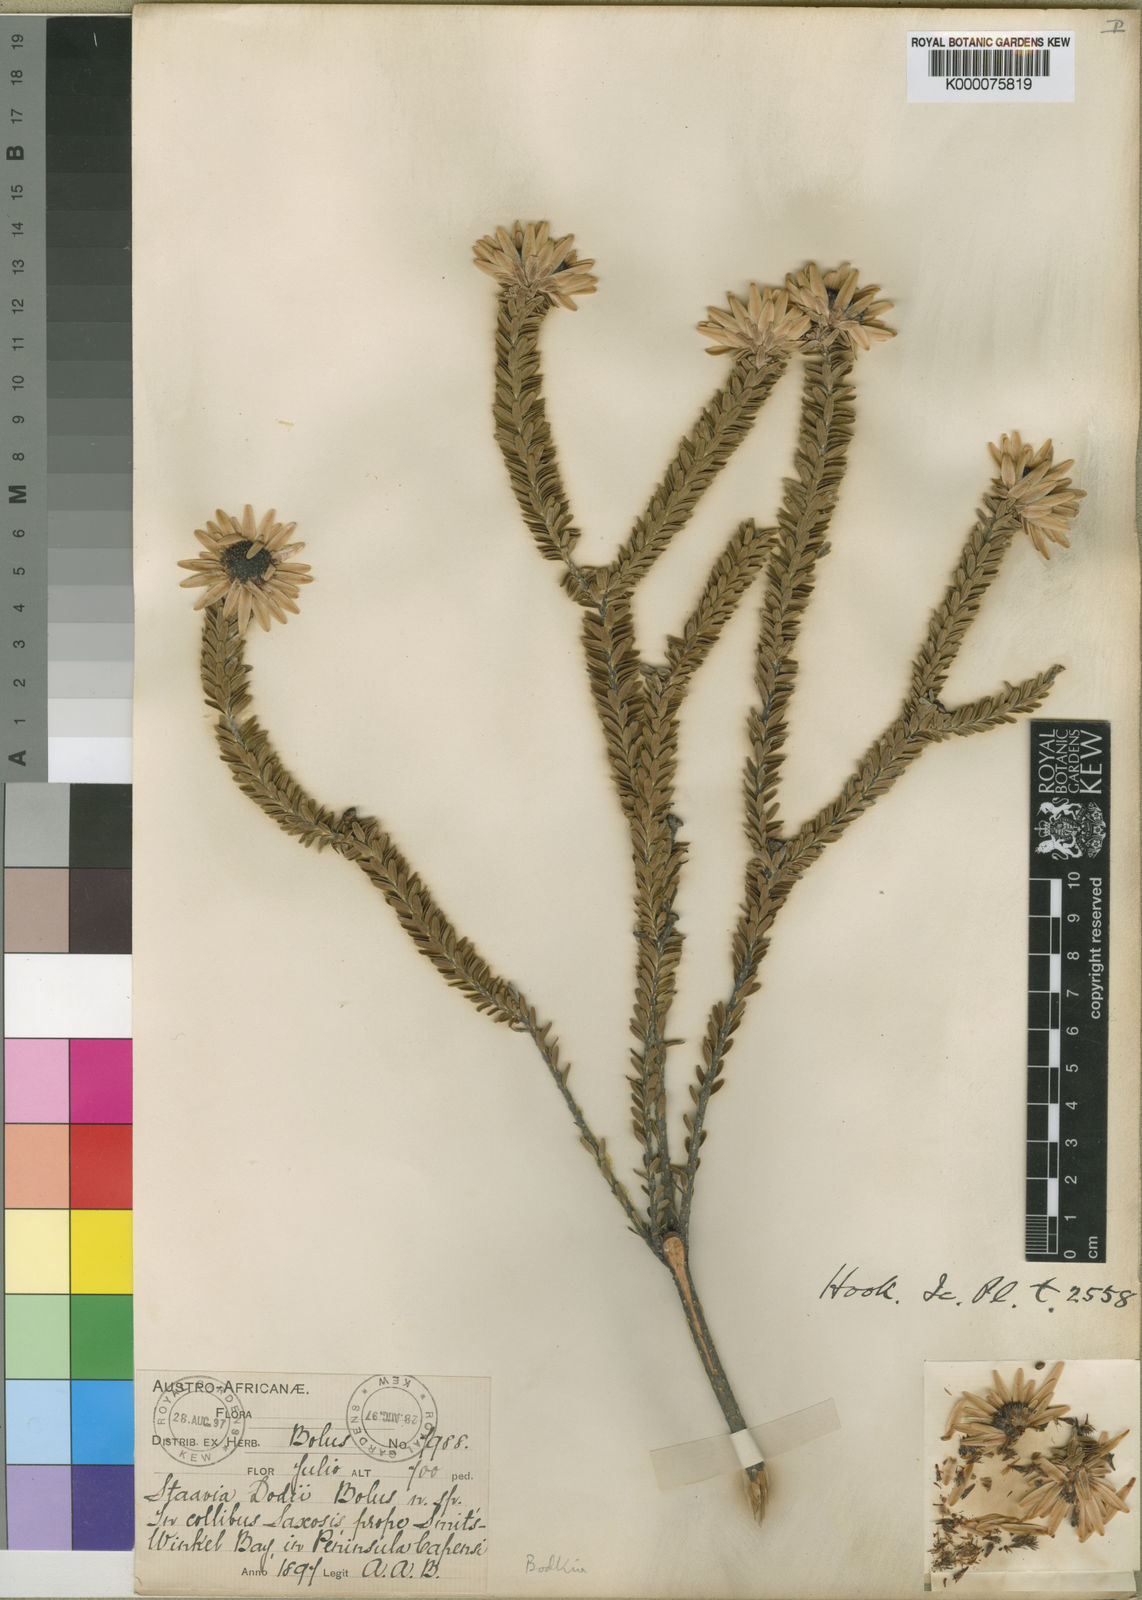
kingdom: Plantae
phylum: Tracheophyta
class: Magnoliopsida
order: Bruniales
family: Bruniaceae
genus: Staavia
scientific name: Staavia dodii
